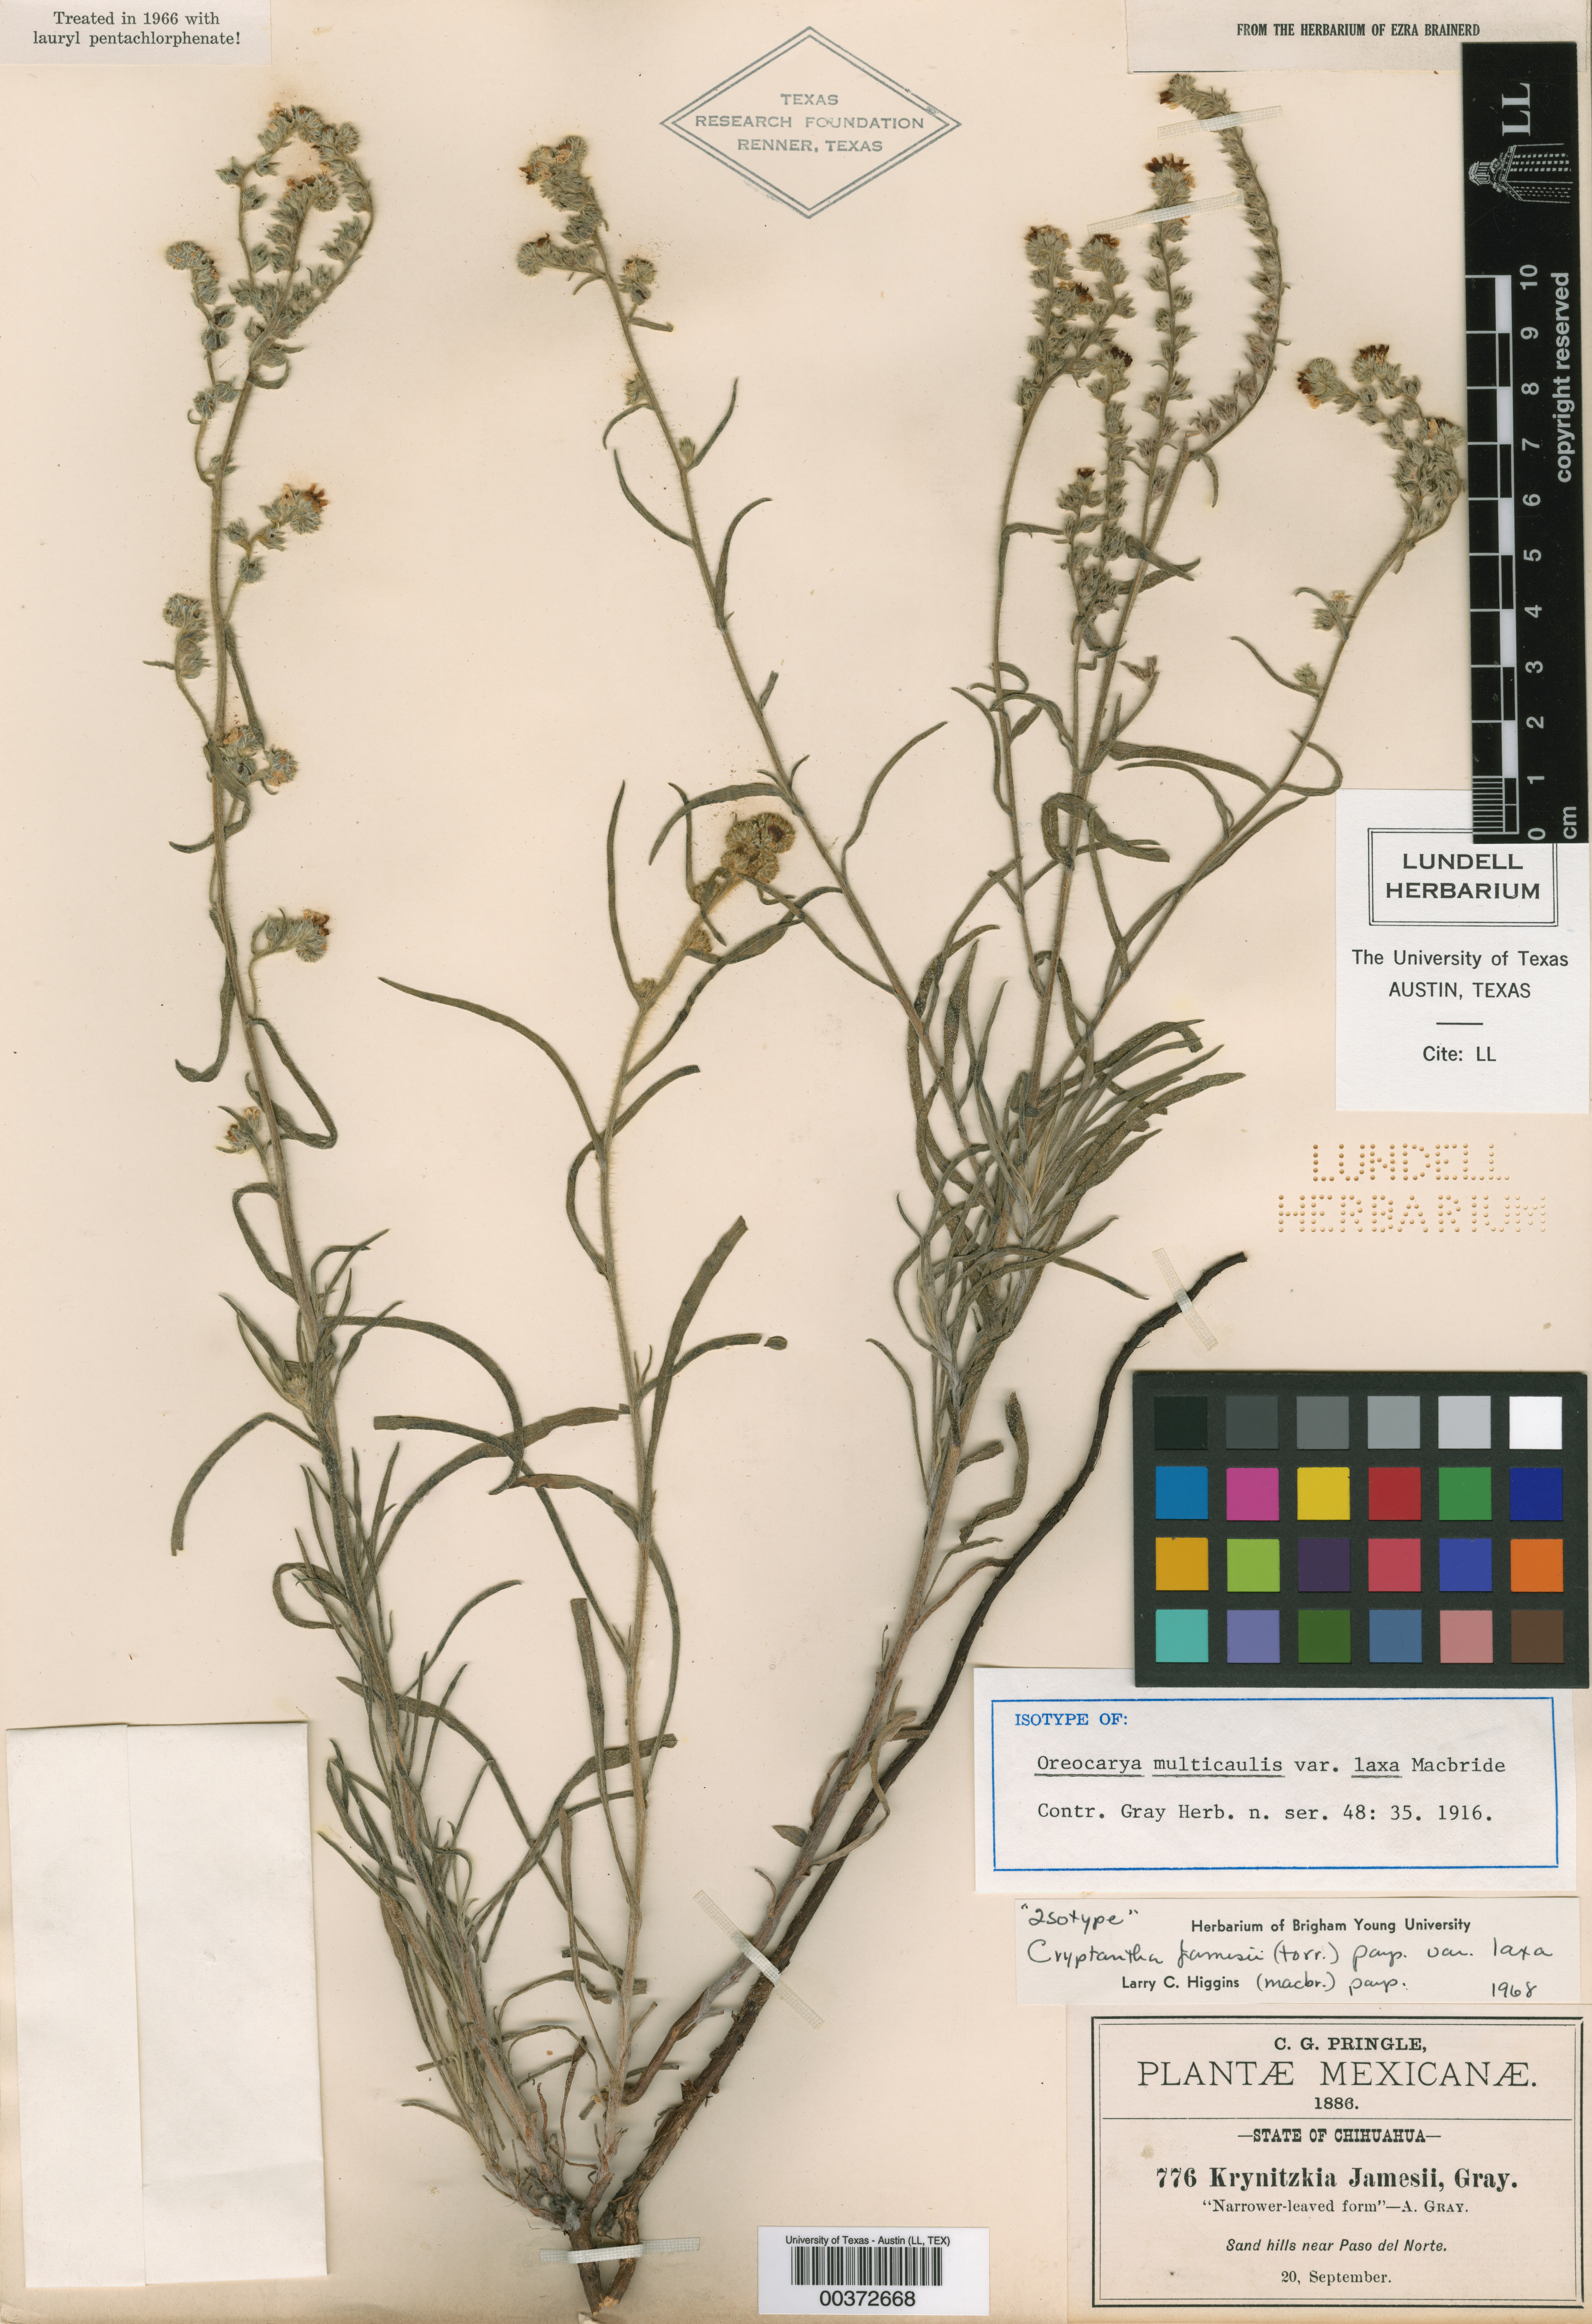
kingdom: Plantae
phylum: Tracheophyta
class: Magnoliopsida
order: Boraginales
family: Boraginaceae
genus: Oreocarya
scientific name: Oreocarya suffruticosa
